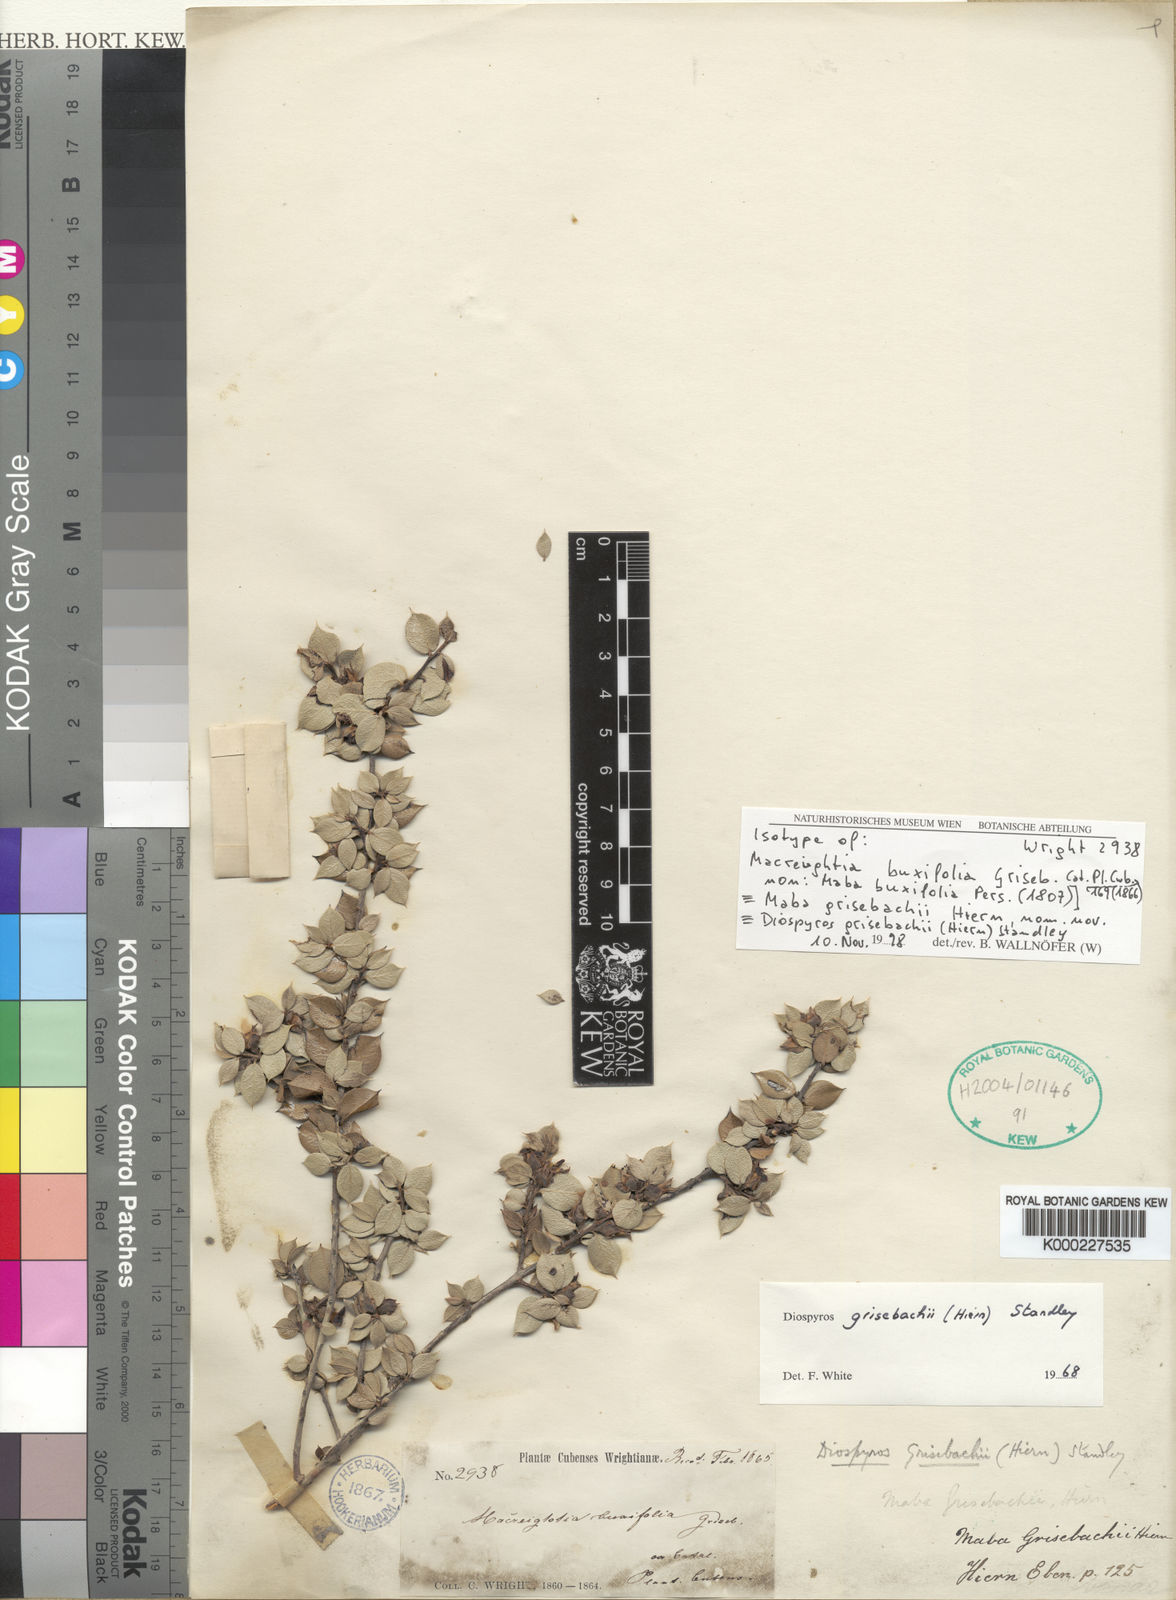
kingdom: Plantae
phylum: Tracheophyta
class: Magnoliopsida
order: Ericales
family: Ebenaceae
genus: Diospyros
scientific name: Diospyros grisebachii
